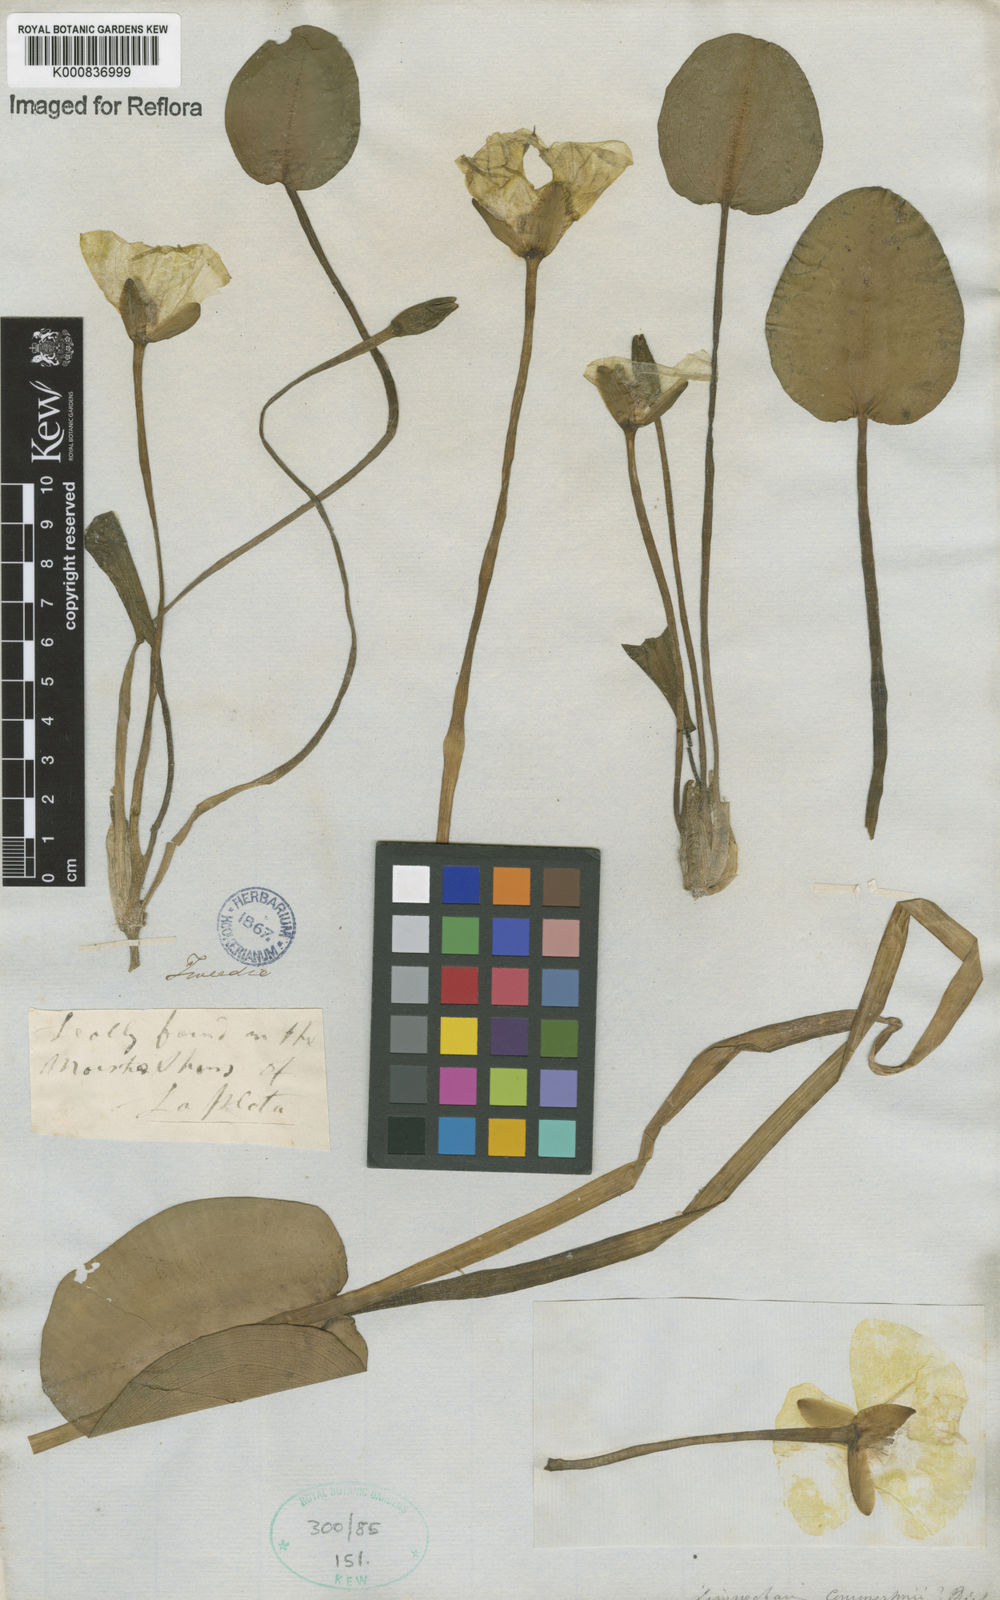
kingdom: Plantae
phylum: Tracheophyta
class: Liliopsida
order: Alismatales
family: Alismataceae
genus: Hydrocleys
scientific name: Hydrocleys nymphoides
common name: Water-poppy
